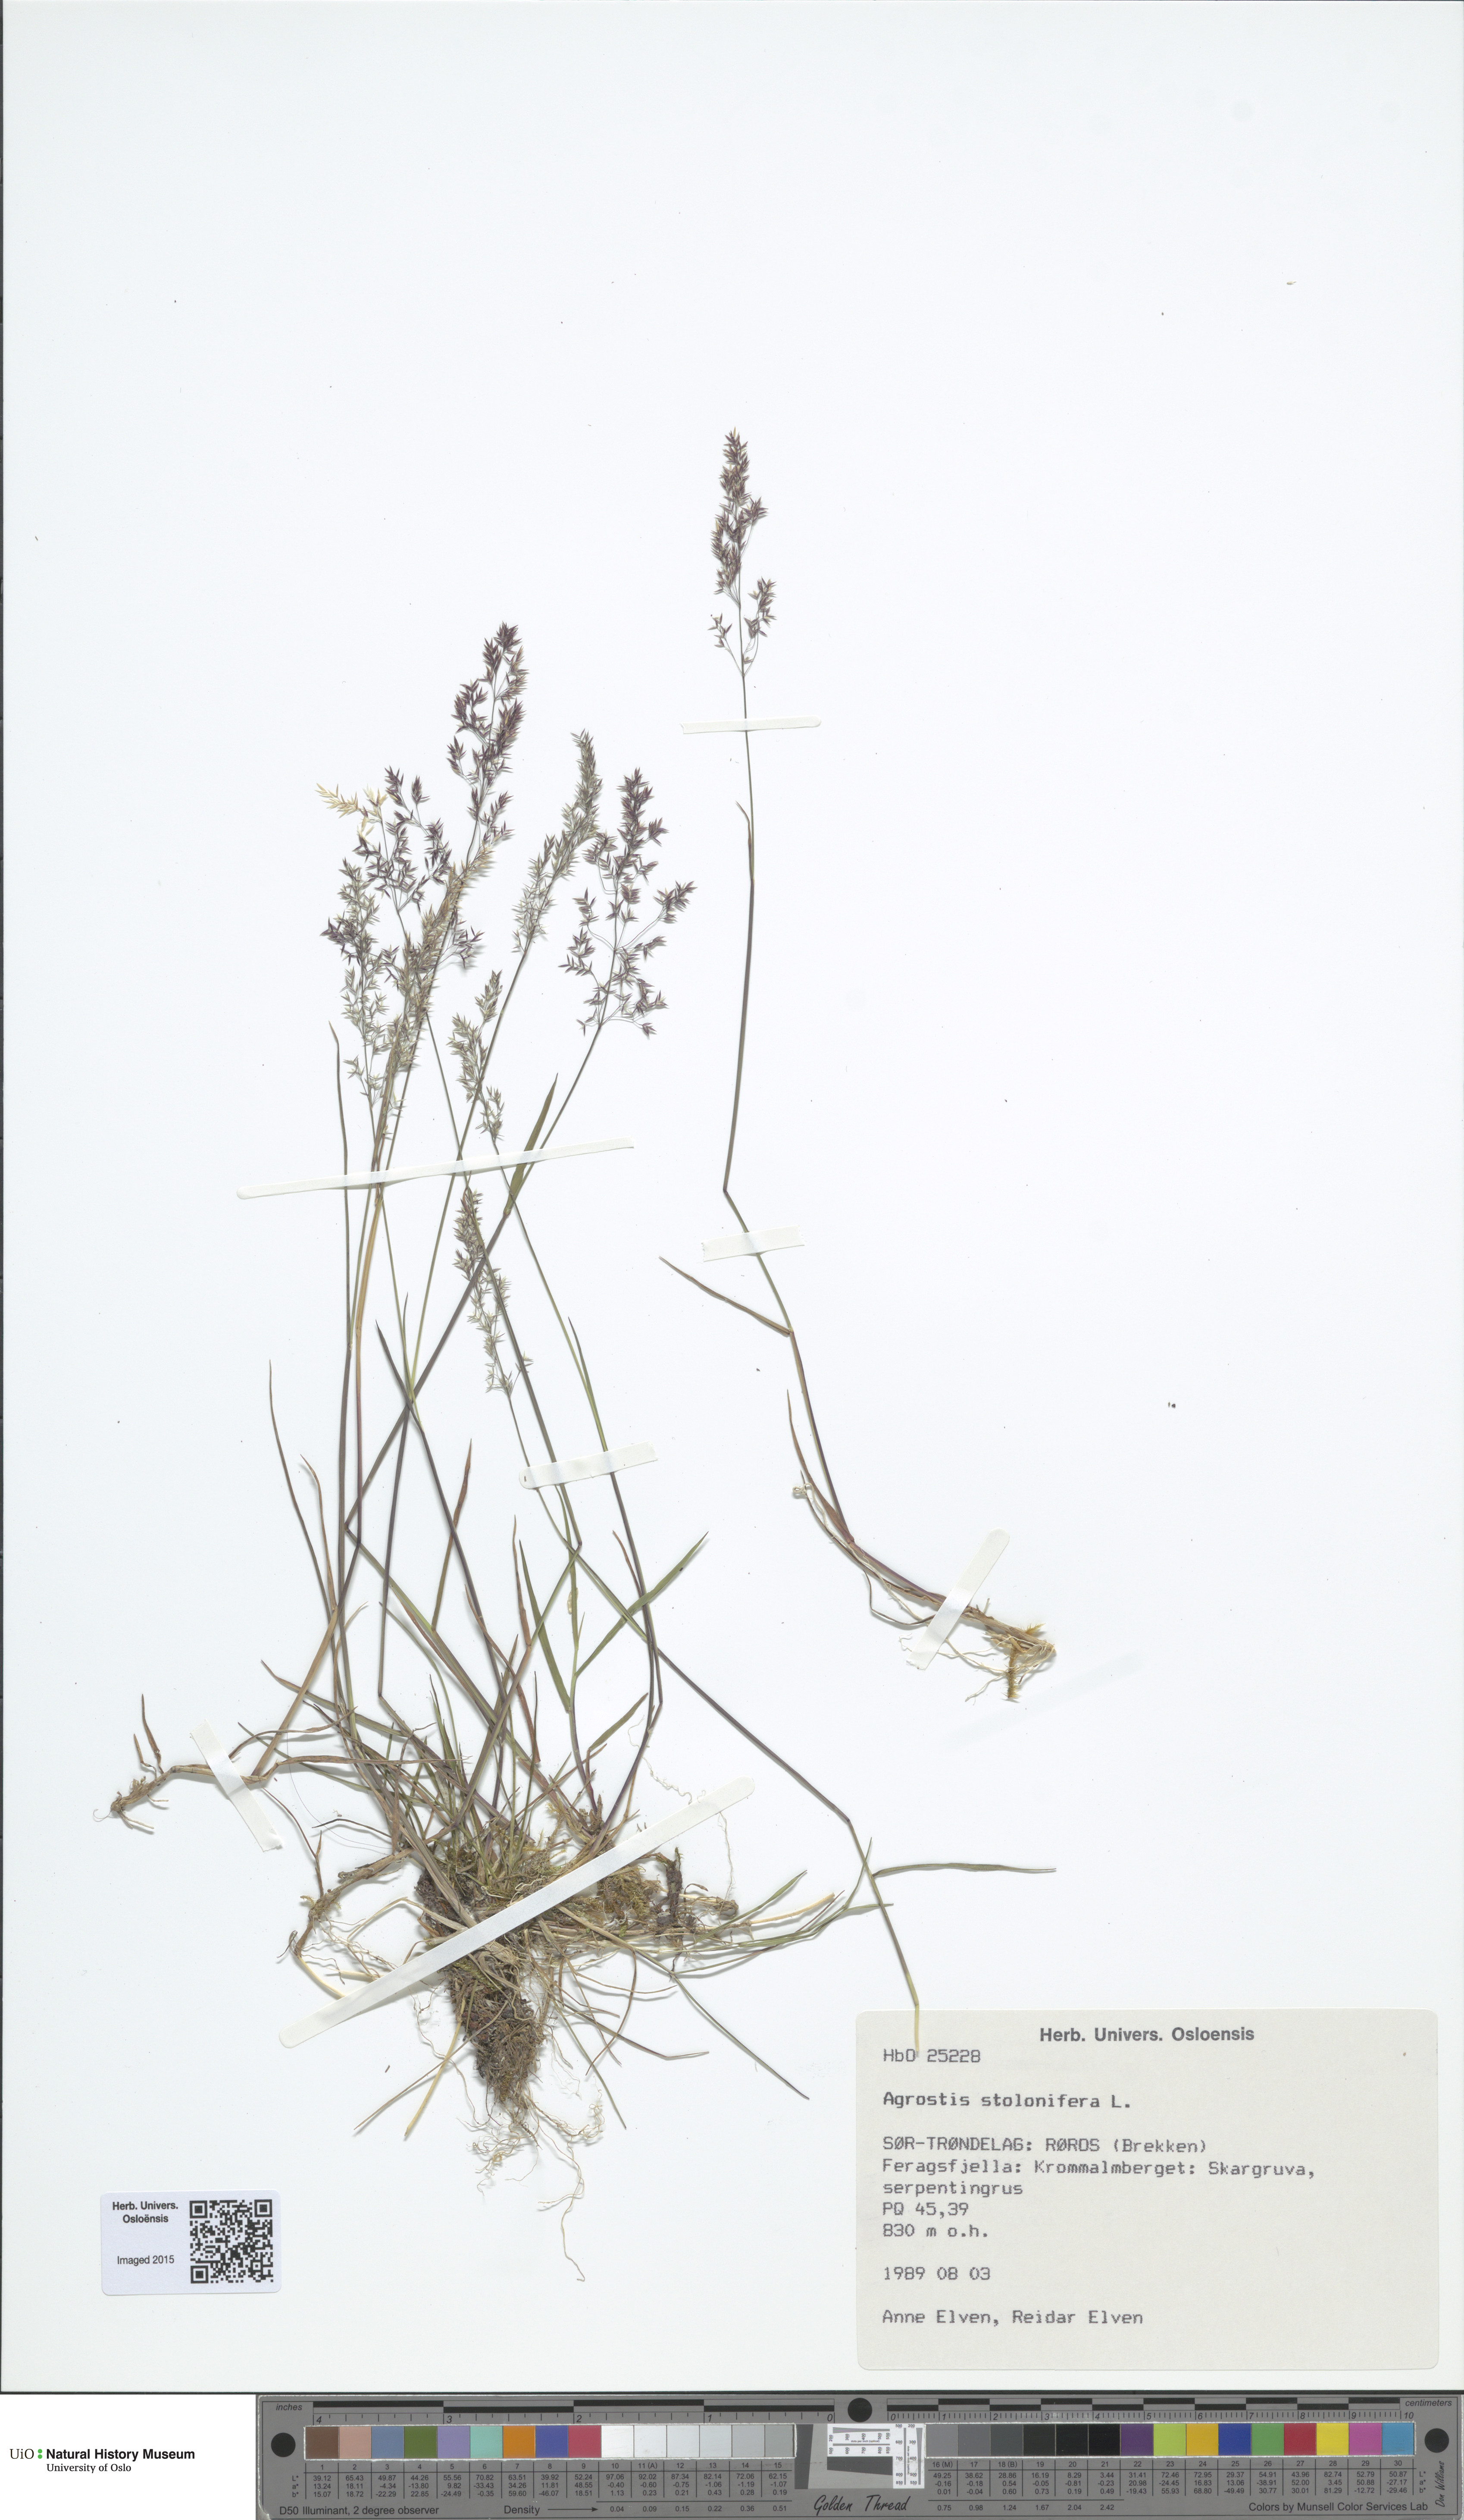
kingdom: Plantae
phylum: Tracheophyta
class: Liliopsida
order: Poales
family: Poaceae
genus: Agrostis
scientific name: Agrostis stolonifera
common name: Creeping bentgrass
